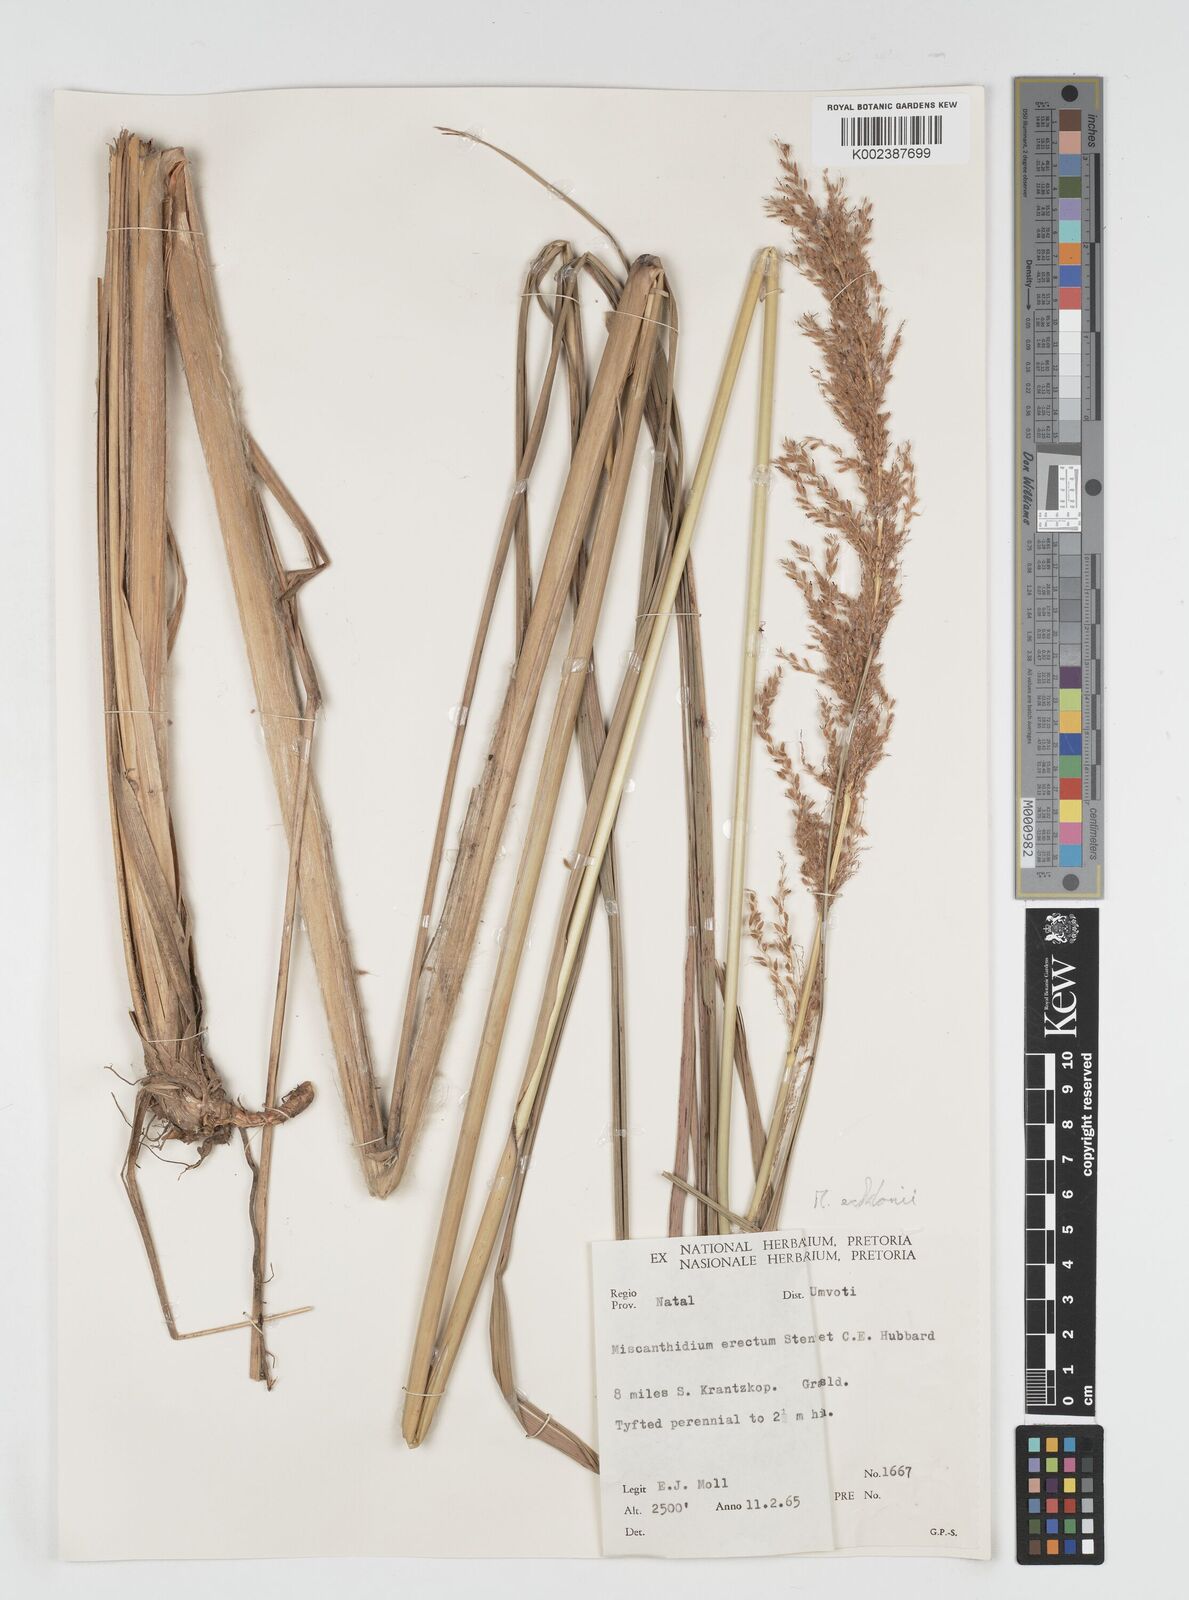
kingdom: Plantae
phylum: Tracheophyta
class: Liliopsida
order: Poales
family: Poaceae
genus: Miscanthus
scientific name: Miscanthus ecklonii
